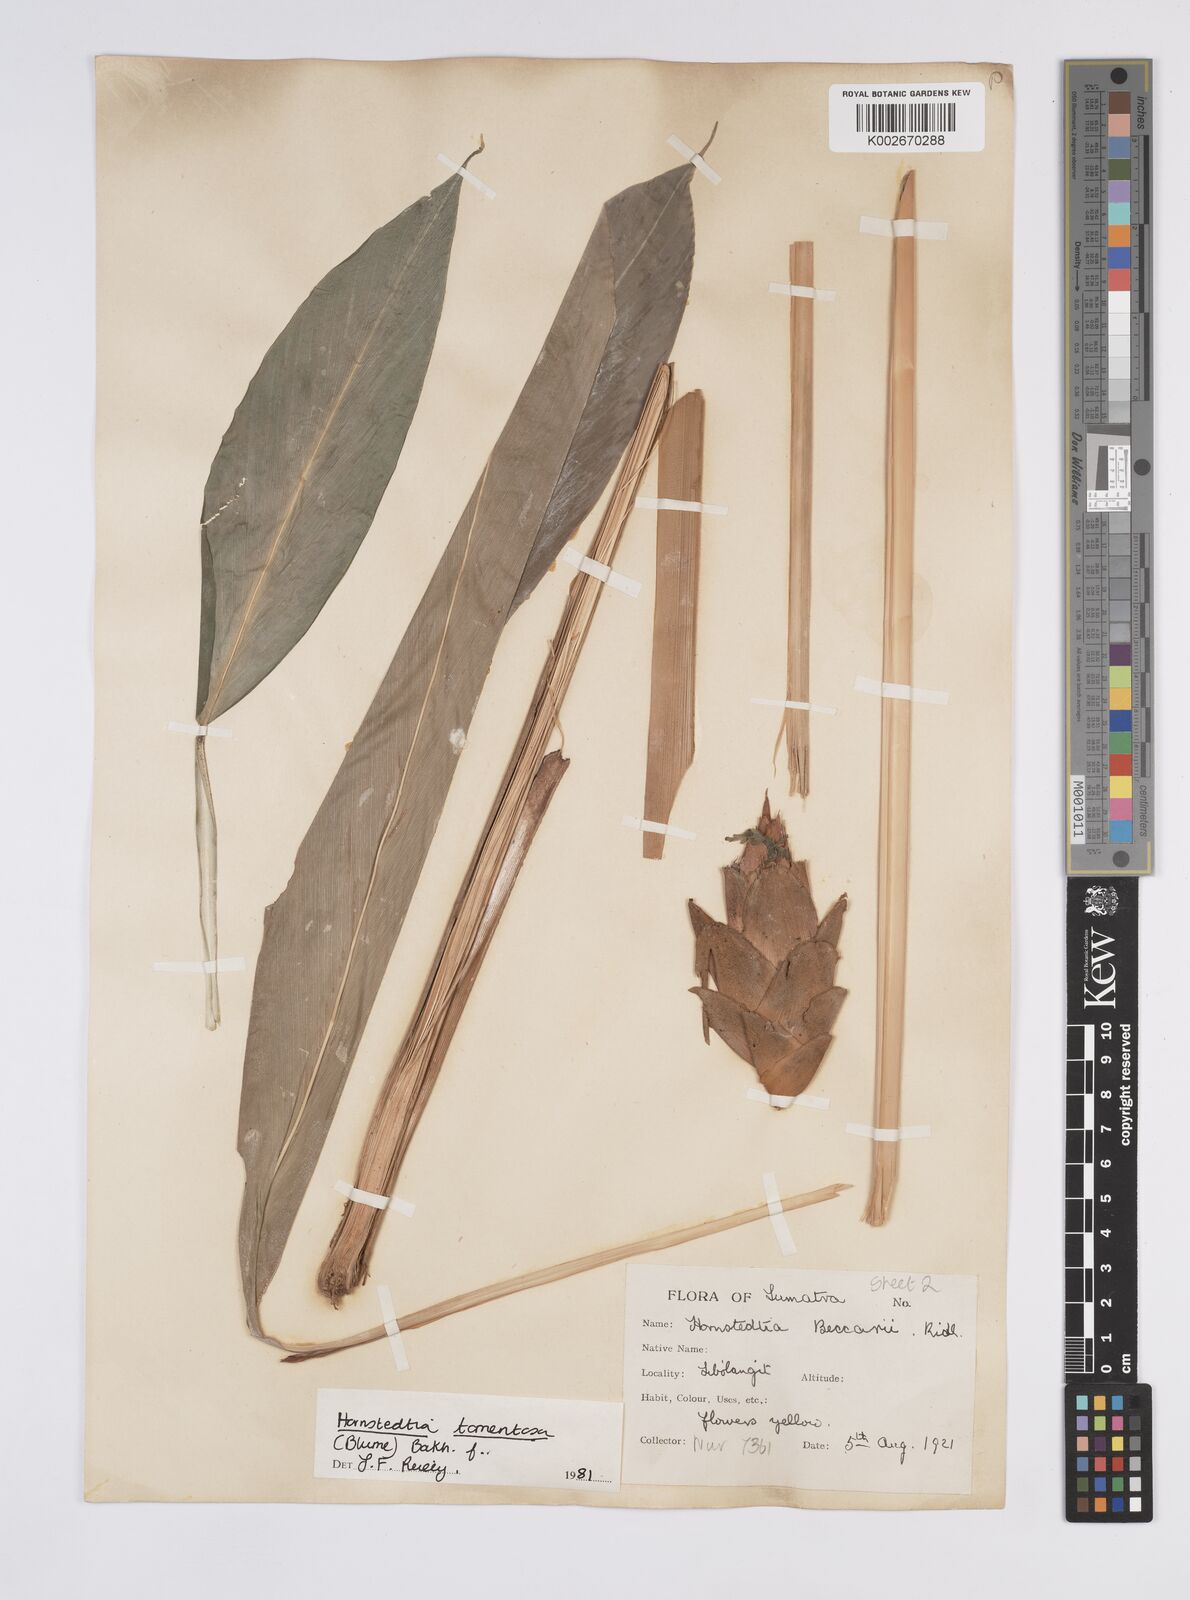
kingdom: Plantae
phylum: Tracheophyta
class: Liliopsida
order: Zingiberales
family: Zingiberaceae
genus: Hornstedtia
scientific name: Hornstedtia tomentosa
